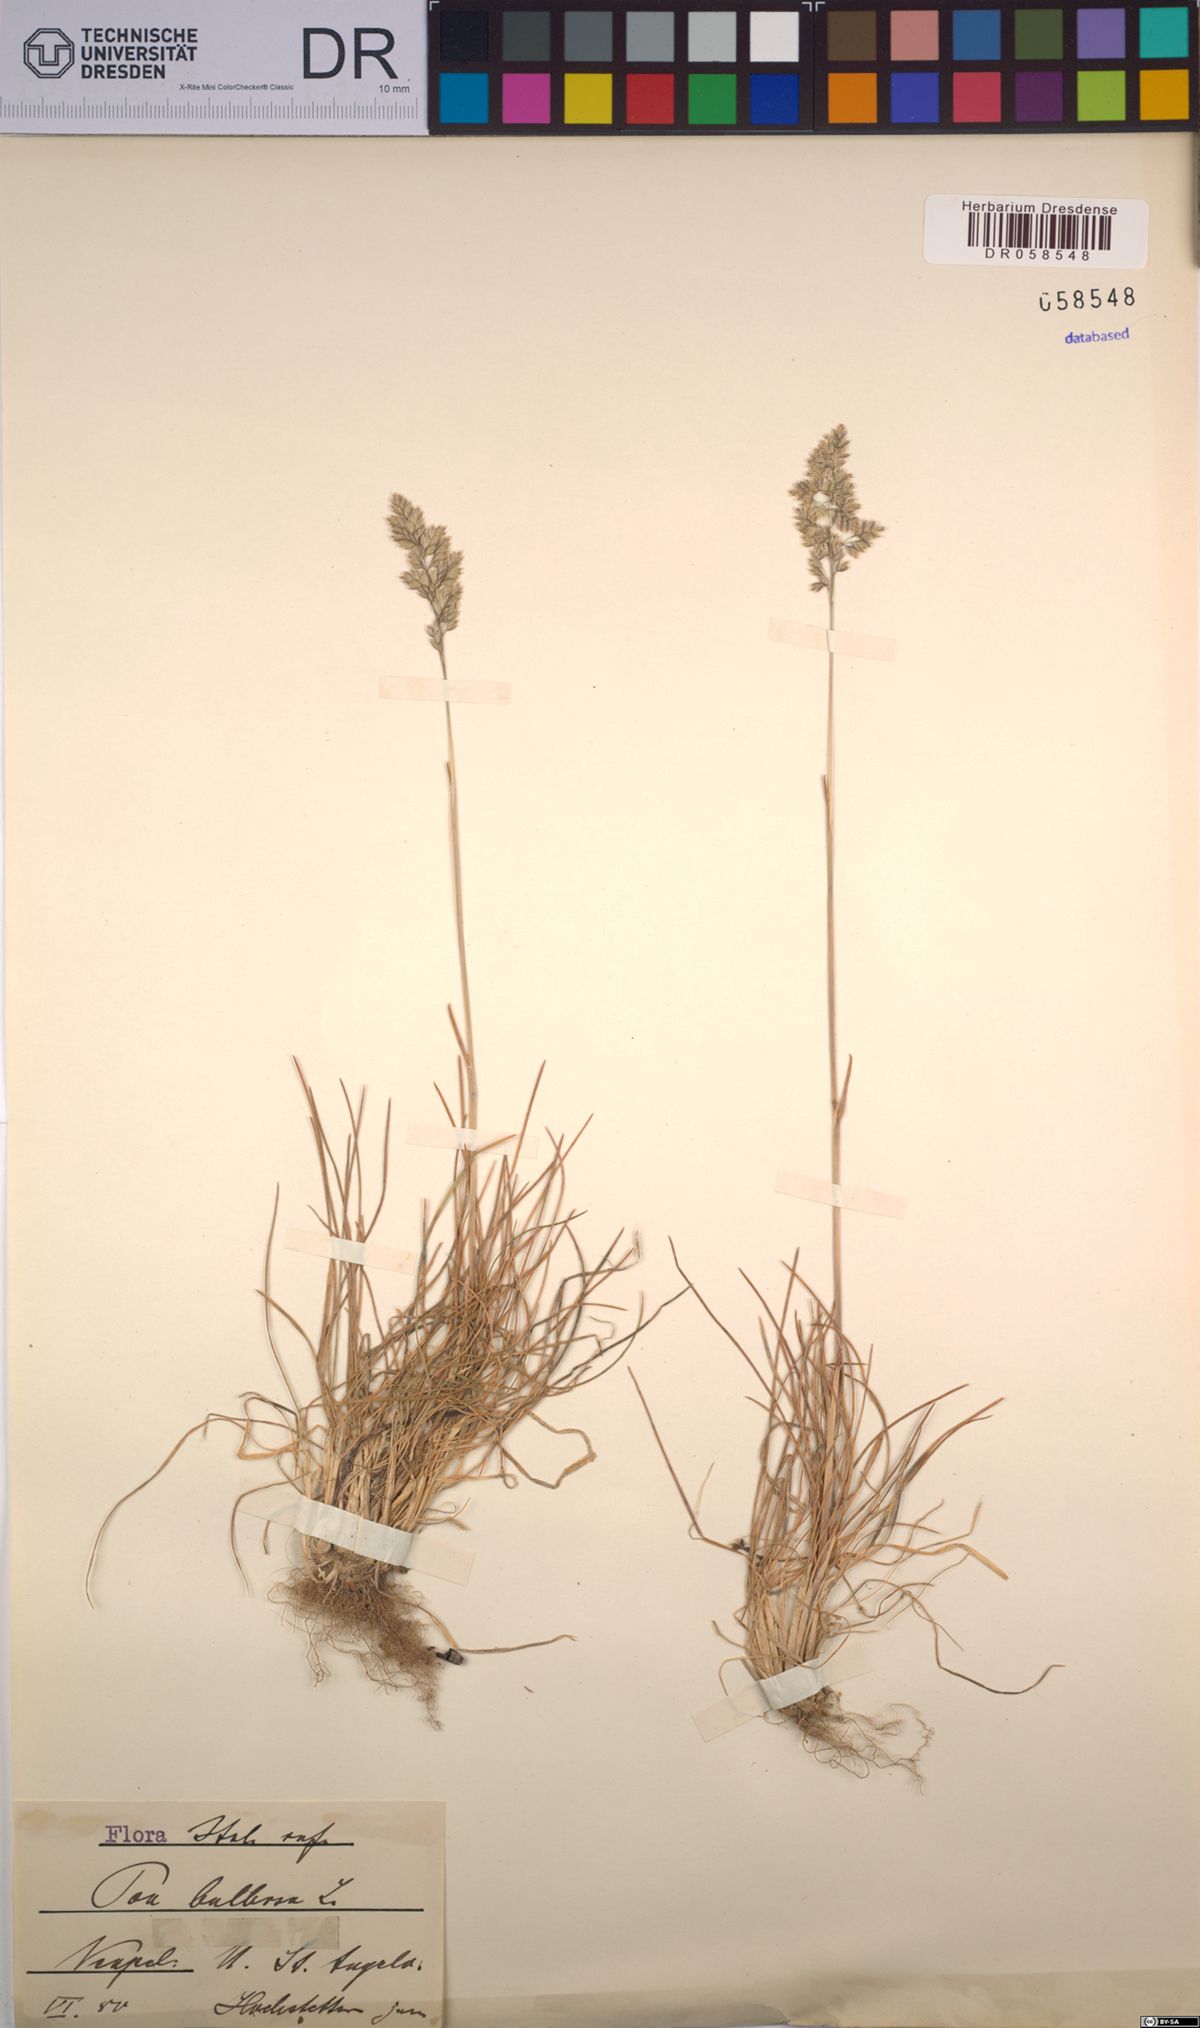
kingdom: Plantae
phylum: Tracheophyta
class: Liliopsida
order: Poales
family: Poaceae
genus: Poa
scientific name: Poa bulbosa
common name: Bulbous bluegrass
